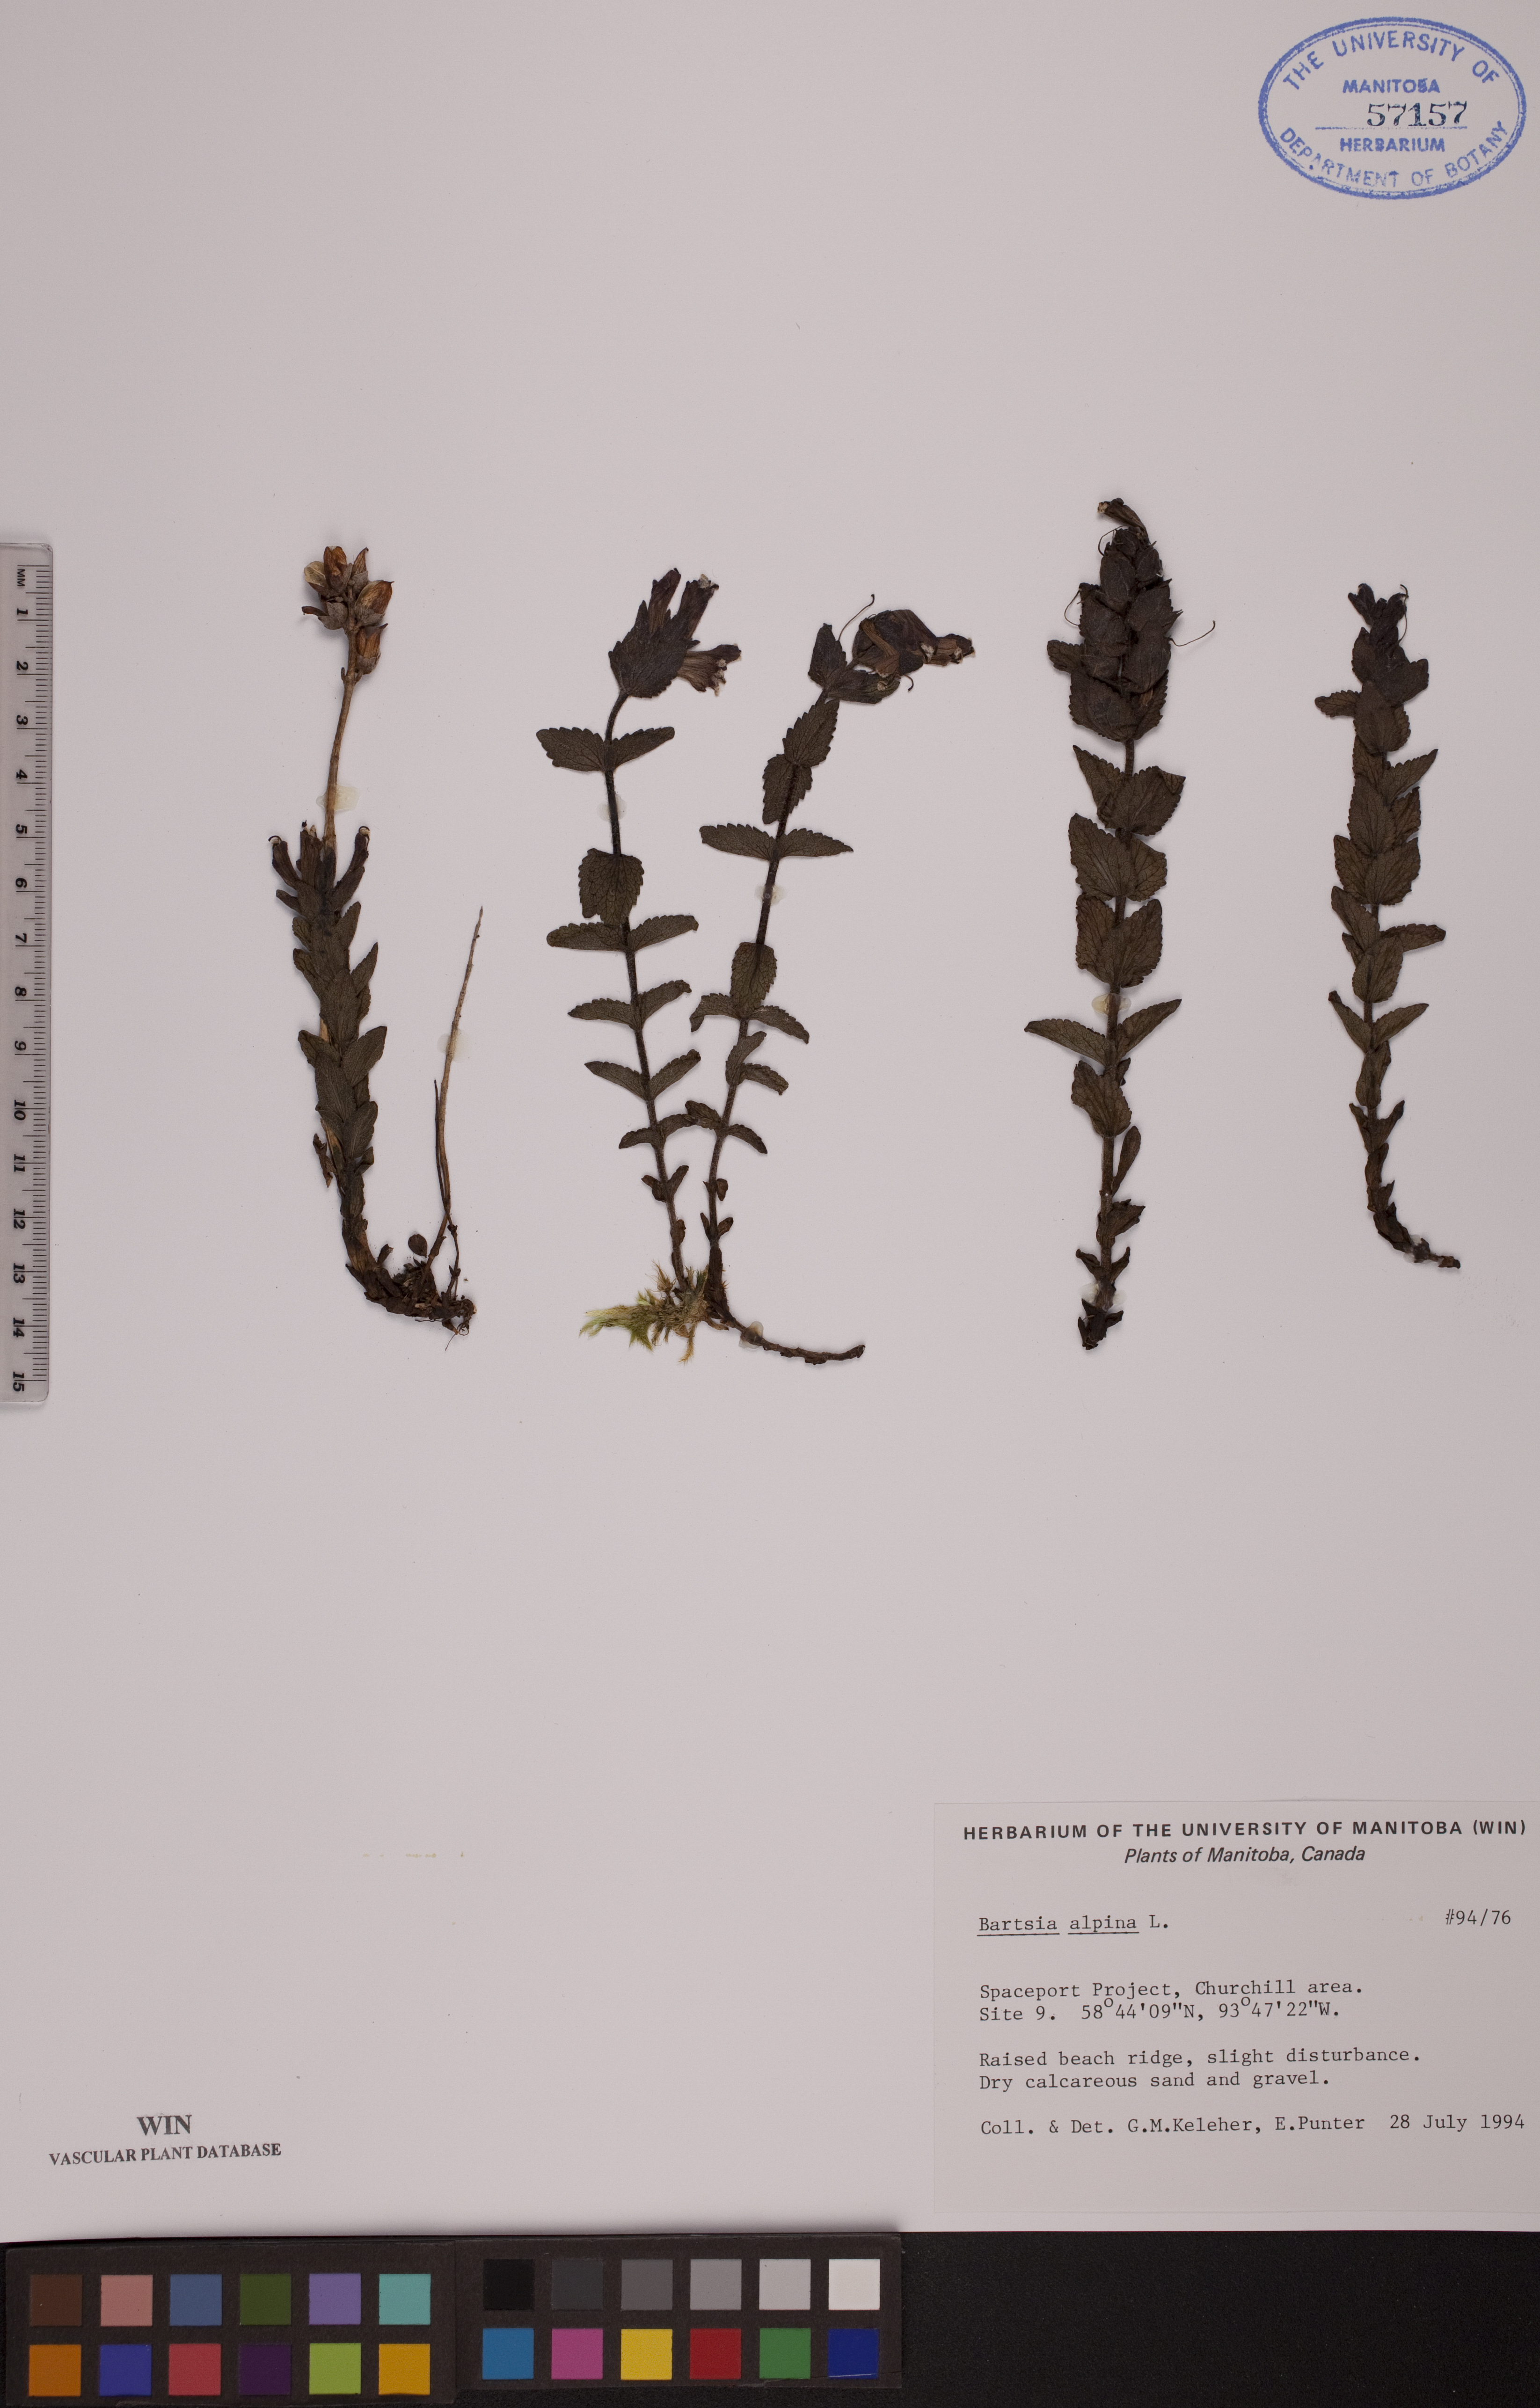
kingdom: Plantae
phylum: Tracheophyta
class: Magnoliopsida
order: Lamiales
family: Orobanchaceae
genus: Bartsia
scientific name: Bartsia alpina
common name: Alpine bartsia
